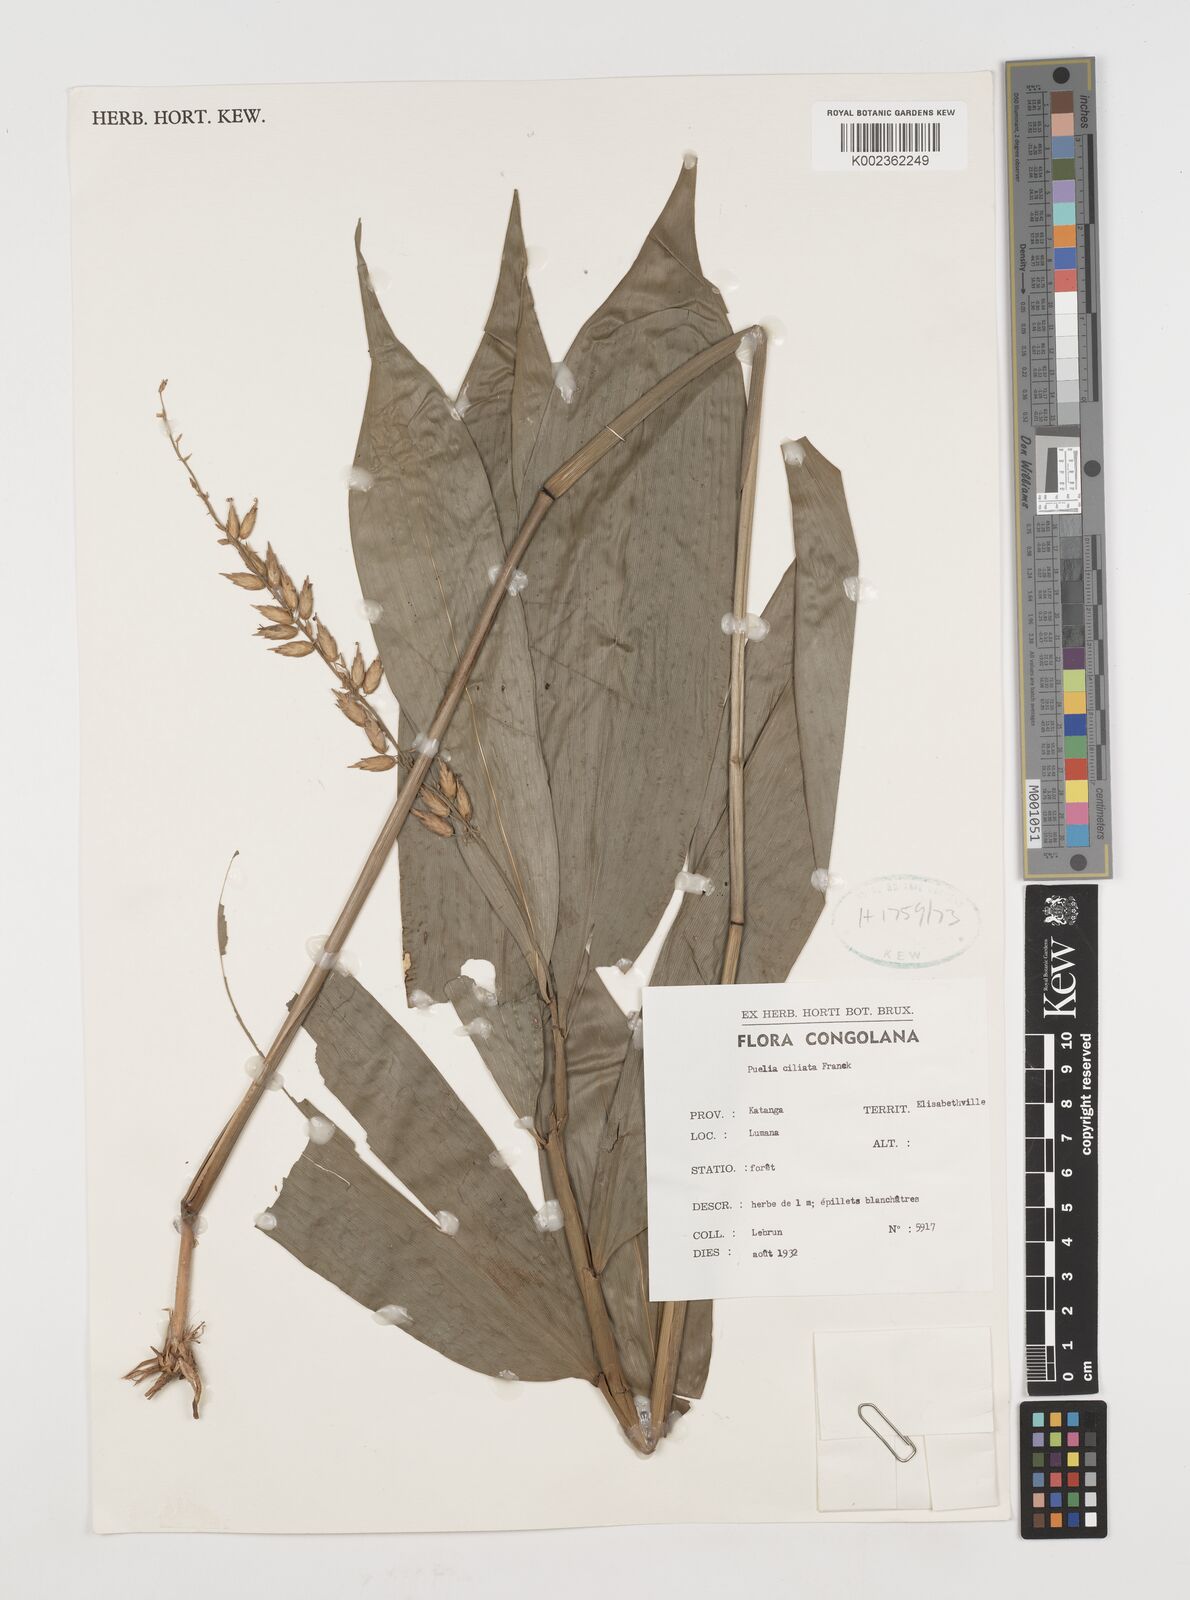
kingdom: Plantae
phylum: Tracheophyta
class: Liliopsida
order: Poales
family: Poaceae
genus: Puelia
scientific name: Puelia olyriformis
